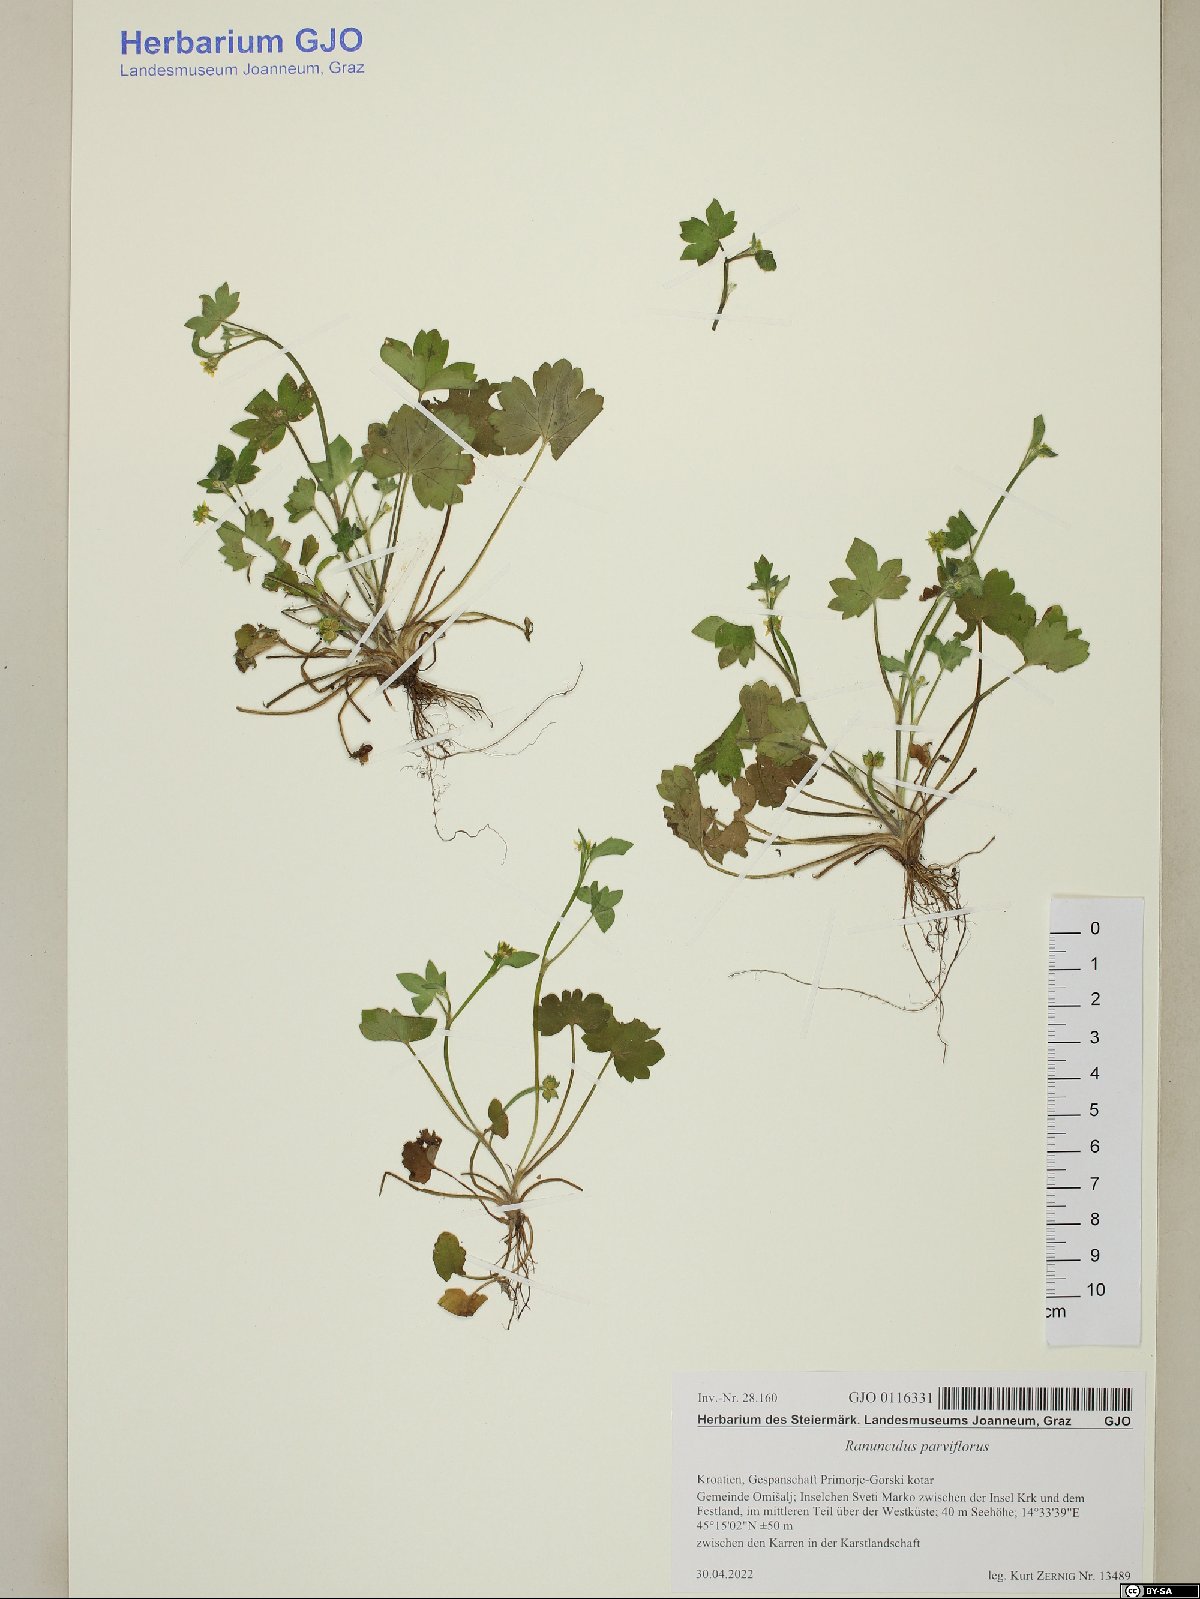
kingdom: Plantae
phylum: Tracheophyta
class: Magnoliopsida
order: Ranunculales
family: Ranunculaceae
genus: Ranunculus
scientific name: Ranunculus parviflorus
